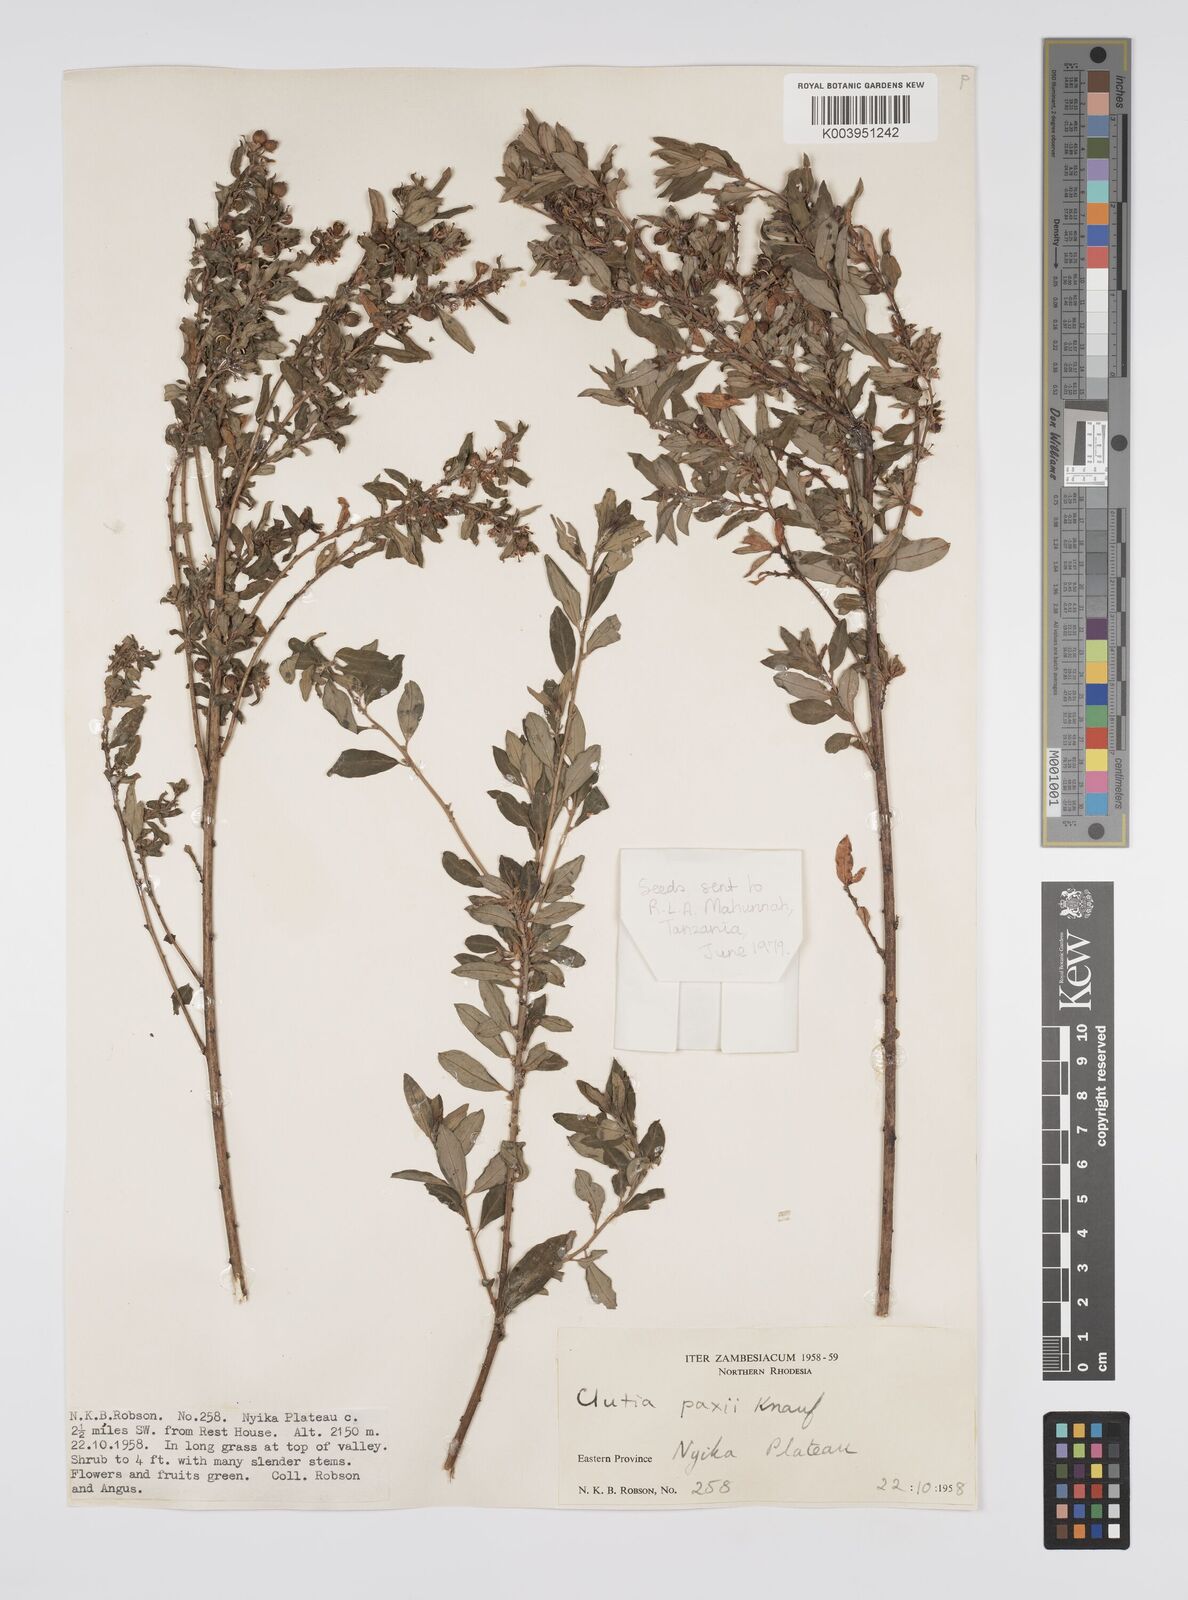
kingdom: Plantae
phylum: Tracheophyta
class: Magnoliopsida
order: Malpighiales
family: Peraceae
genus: Clutia
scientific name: Clutia paxii
